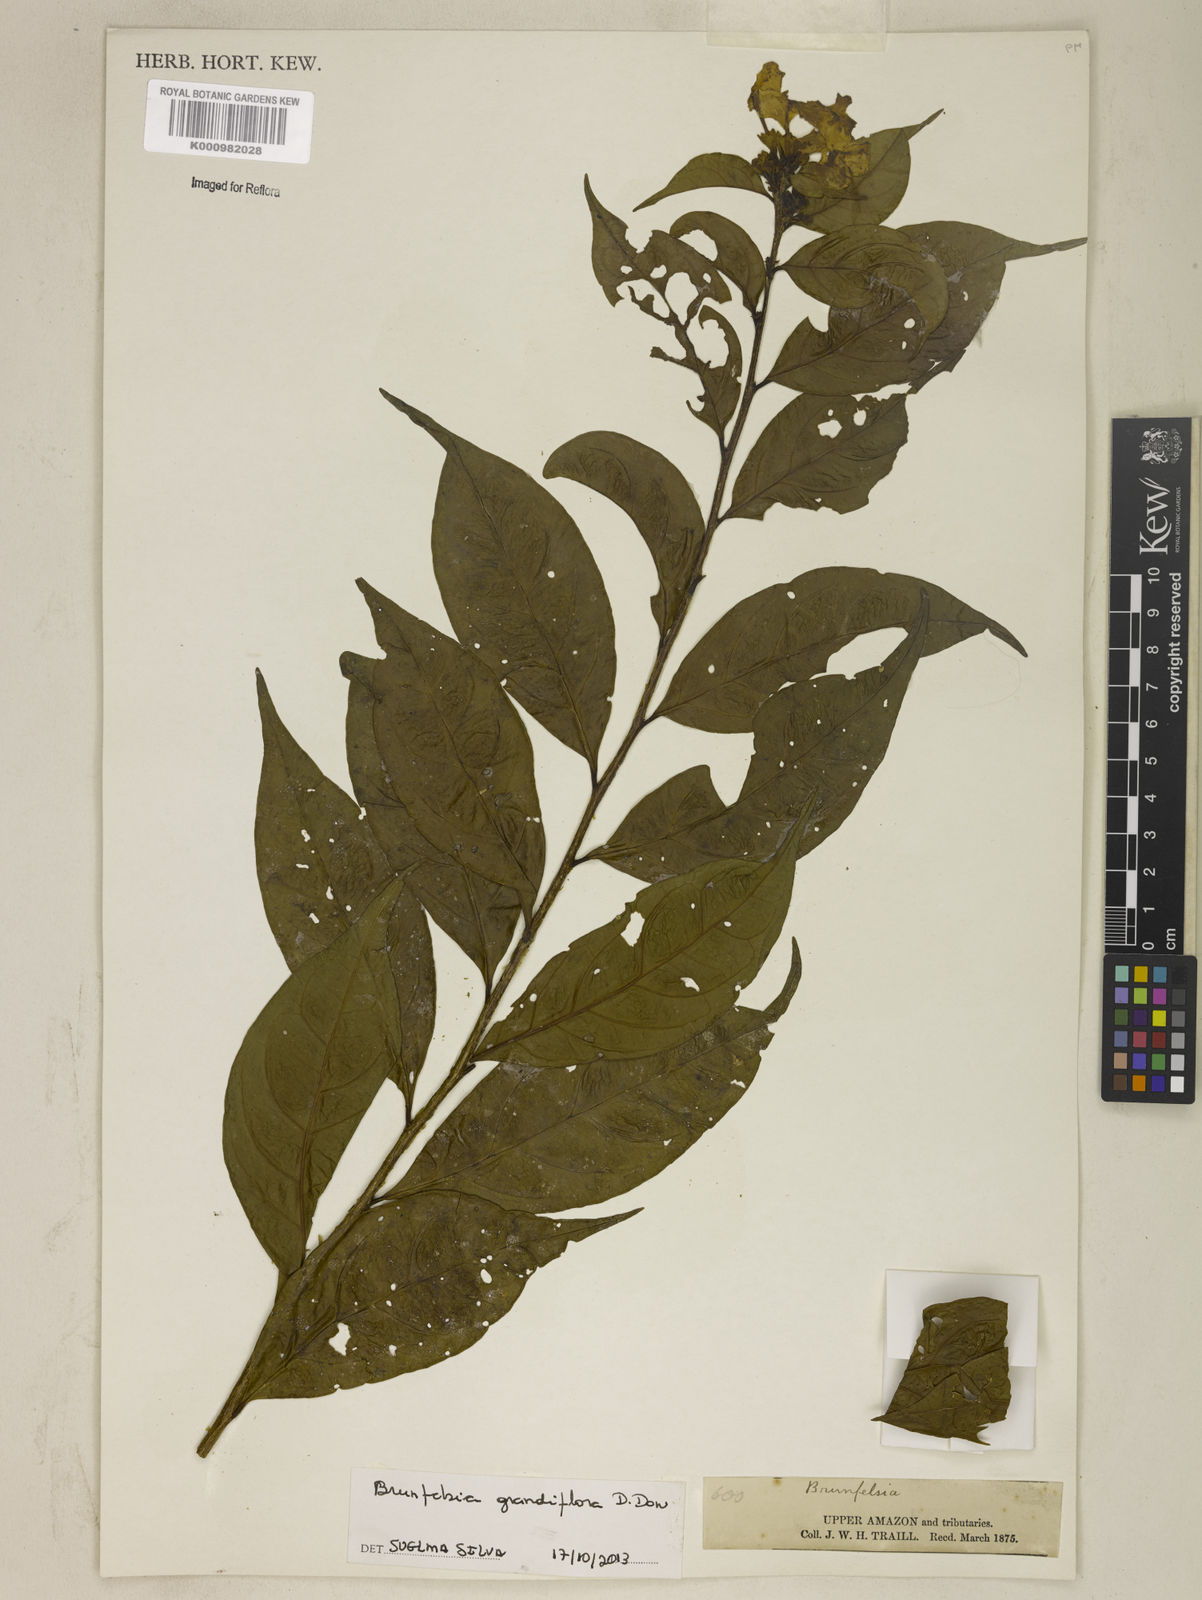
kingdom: Plantae
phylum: Tracheophyta
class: Magnoliopsida
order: Solanales
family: Solanaceae
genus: Brunfelsia
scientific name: Brunfelsia grandiflora
